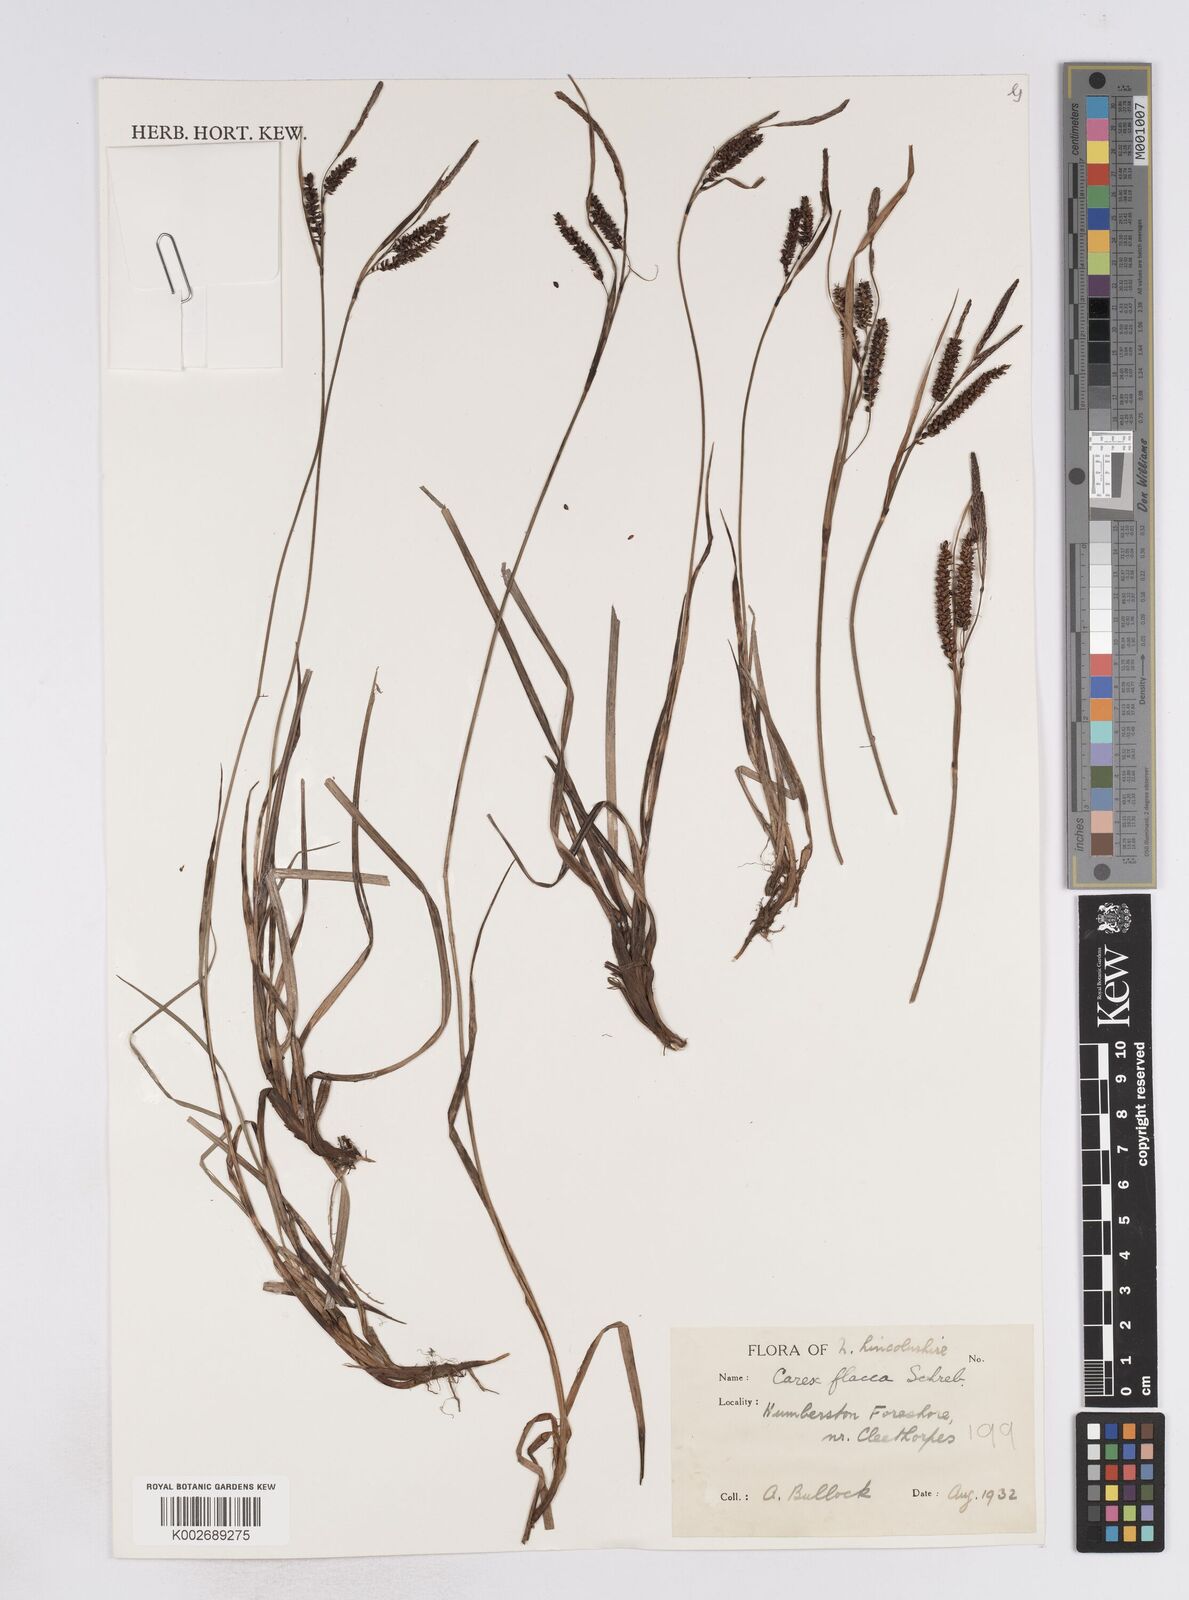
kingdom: Plantae
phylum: Tracheophyta
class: Liliopsida
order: Poales
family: Cyperaceae
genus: Carex
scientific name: Carex flacca
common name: Glaucous sedge
